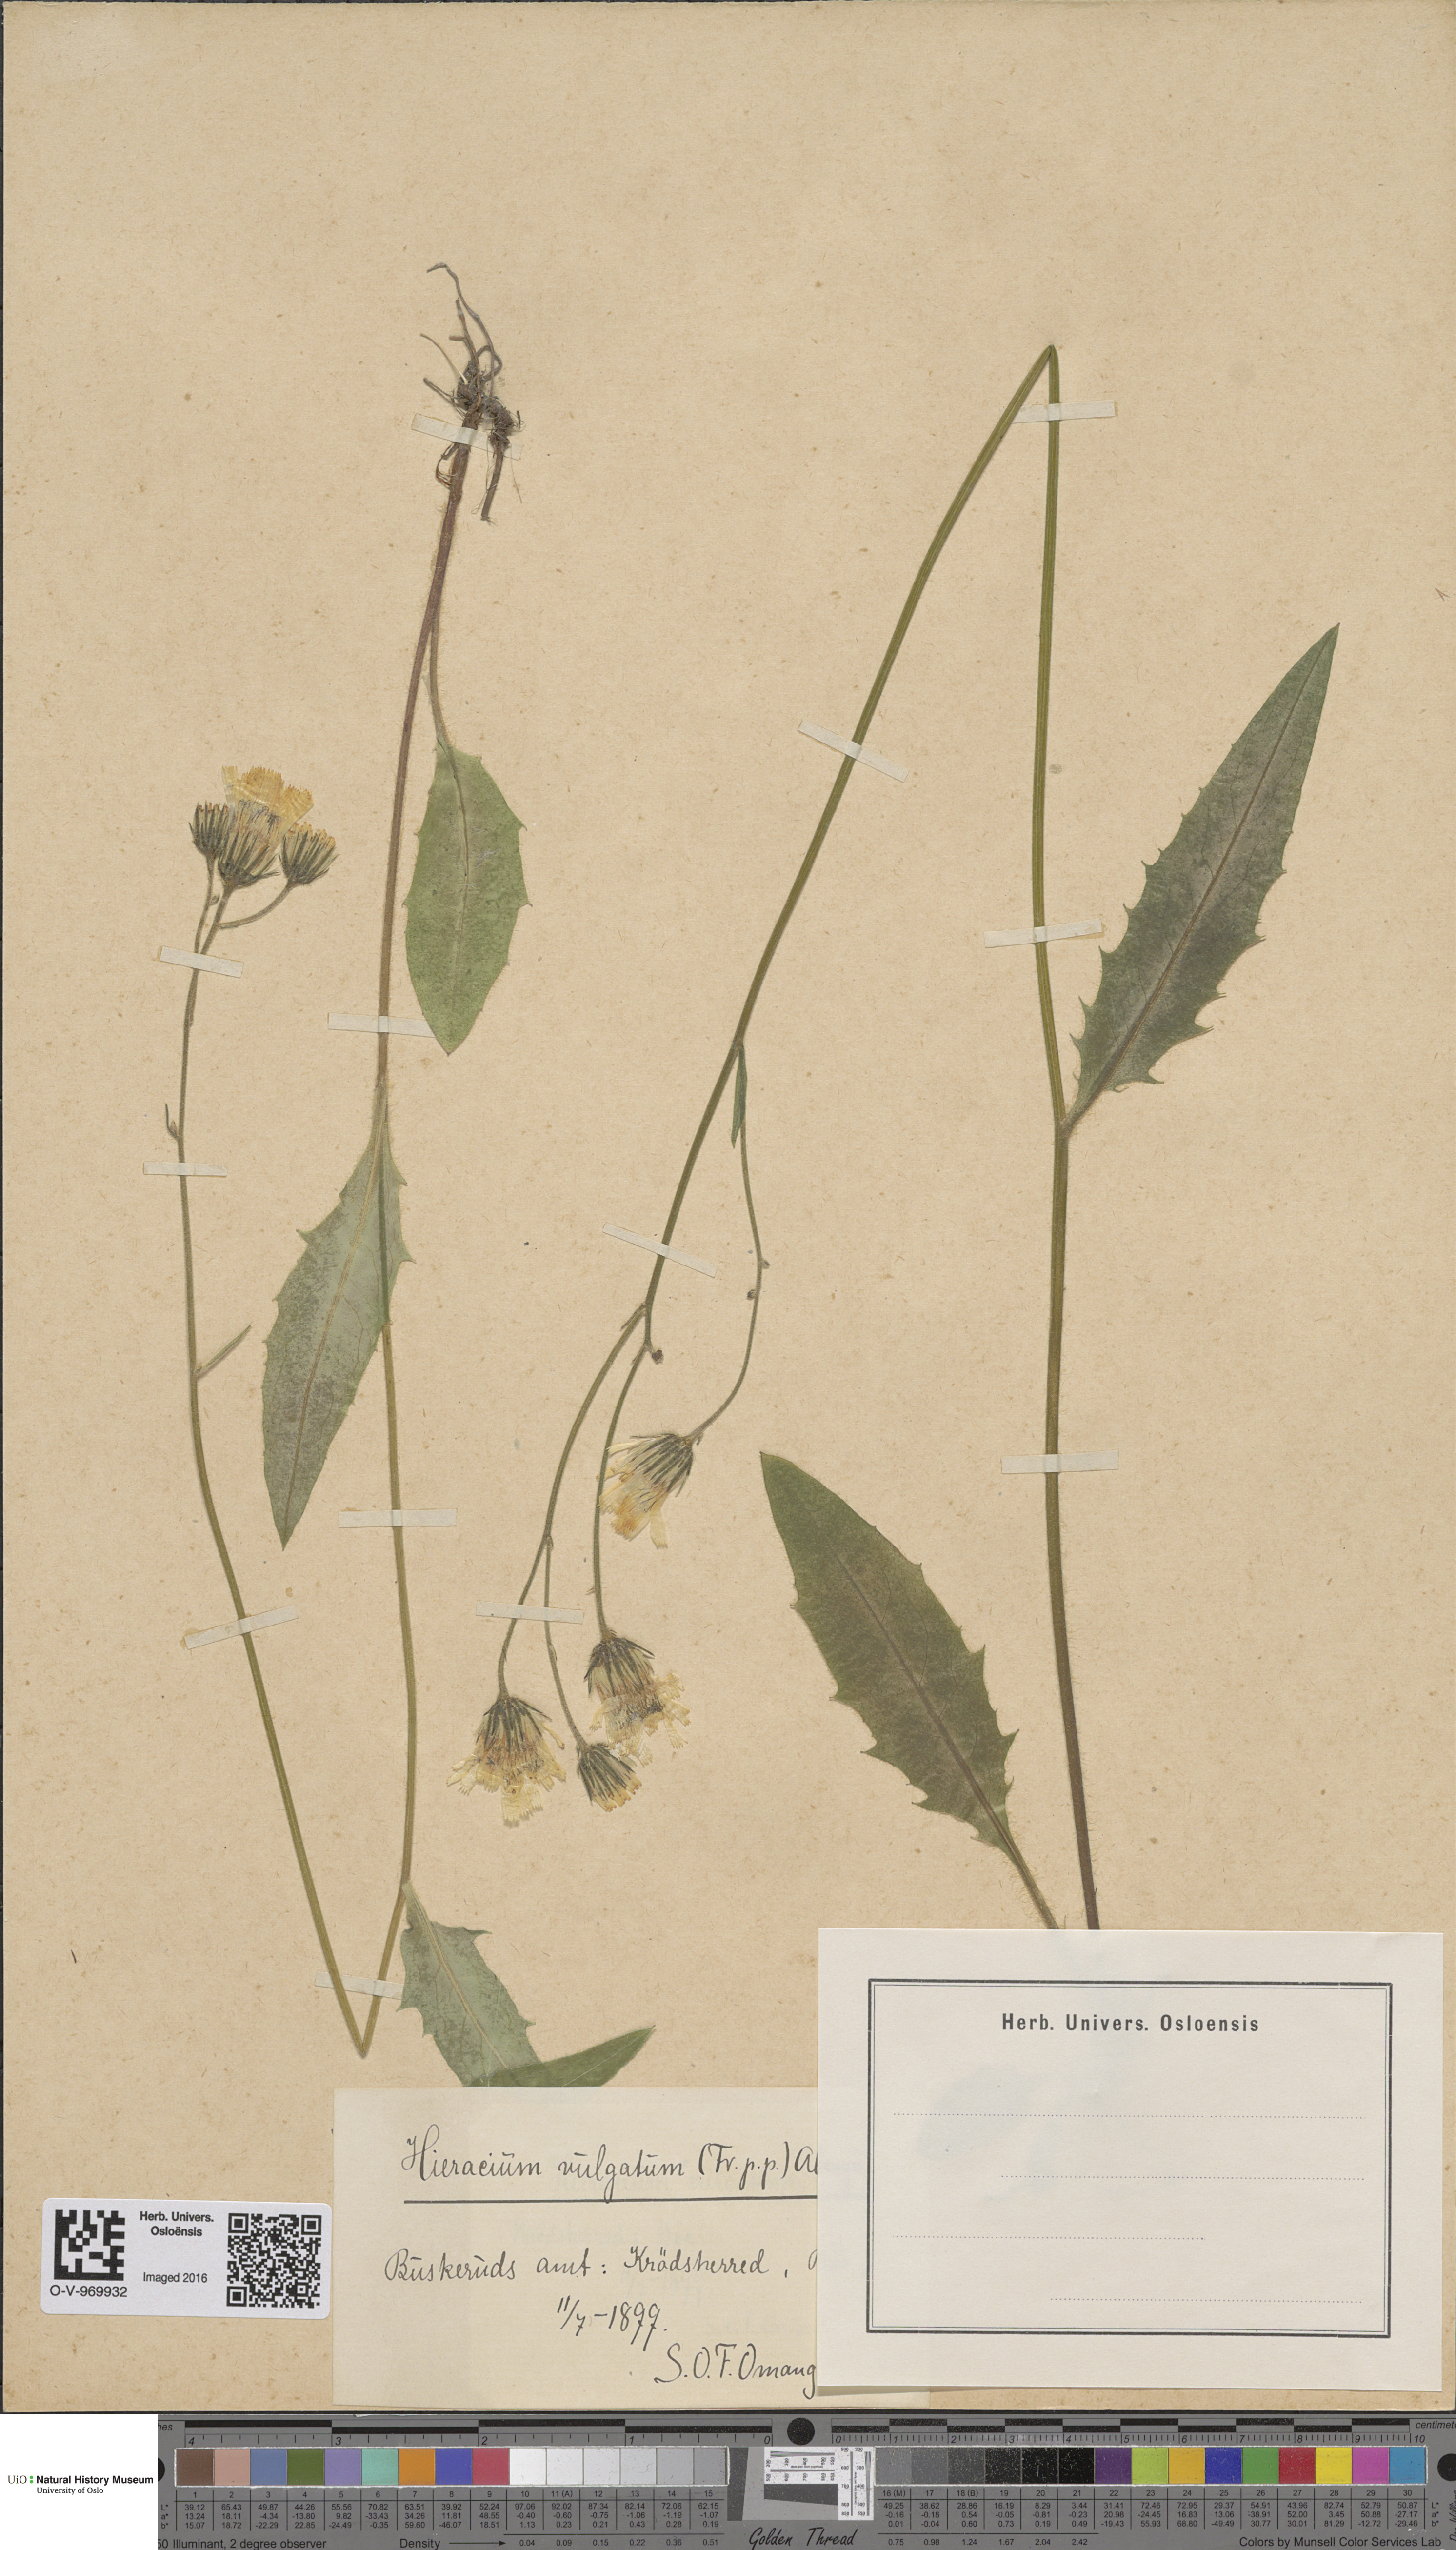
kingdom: Plantae
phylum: Tracheophyta
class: Magnoliopsida
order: Asterales
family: Asteraceae
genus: Hieracium
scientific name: Hieracium vulgatum
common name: Common hawkweed
